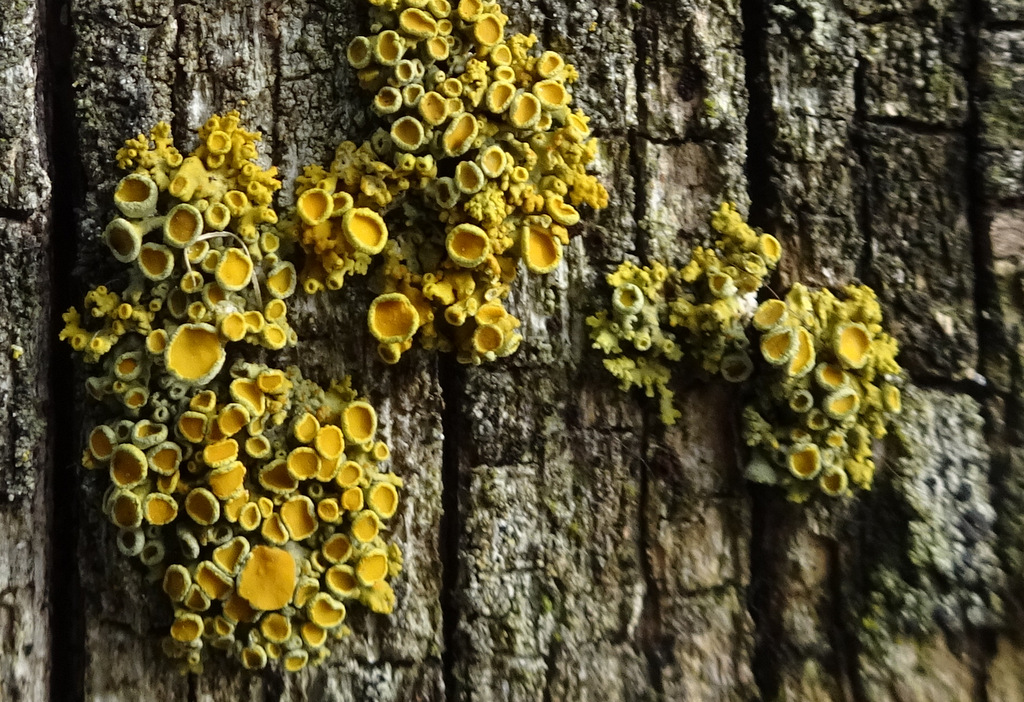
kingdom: Fungi
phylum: Ascomycota
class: Lecanoromycetes
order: Teloschistales
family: Teloschistaceae
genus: Polycauliona
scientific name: Polycauliona polycarpa
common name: mangefrugtet orangelav
